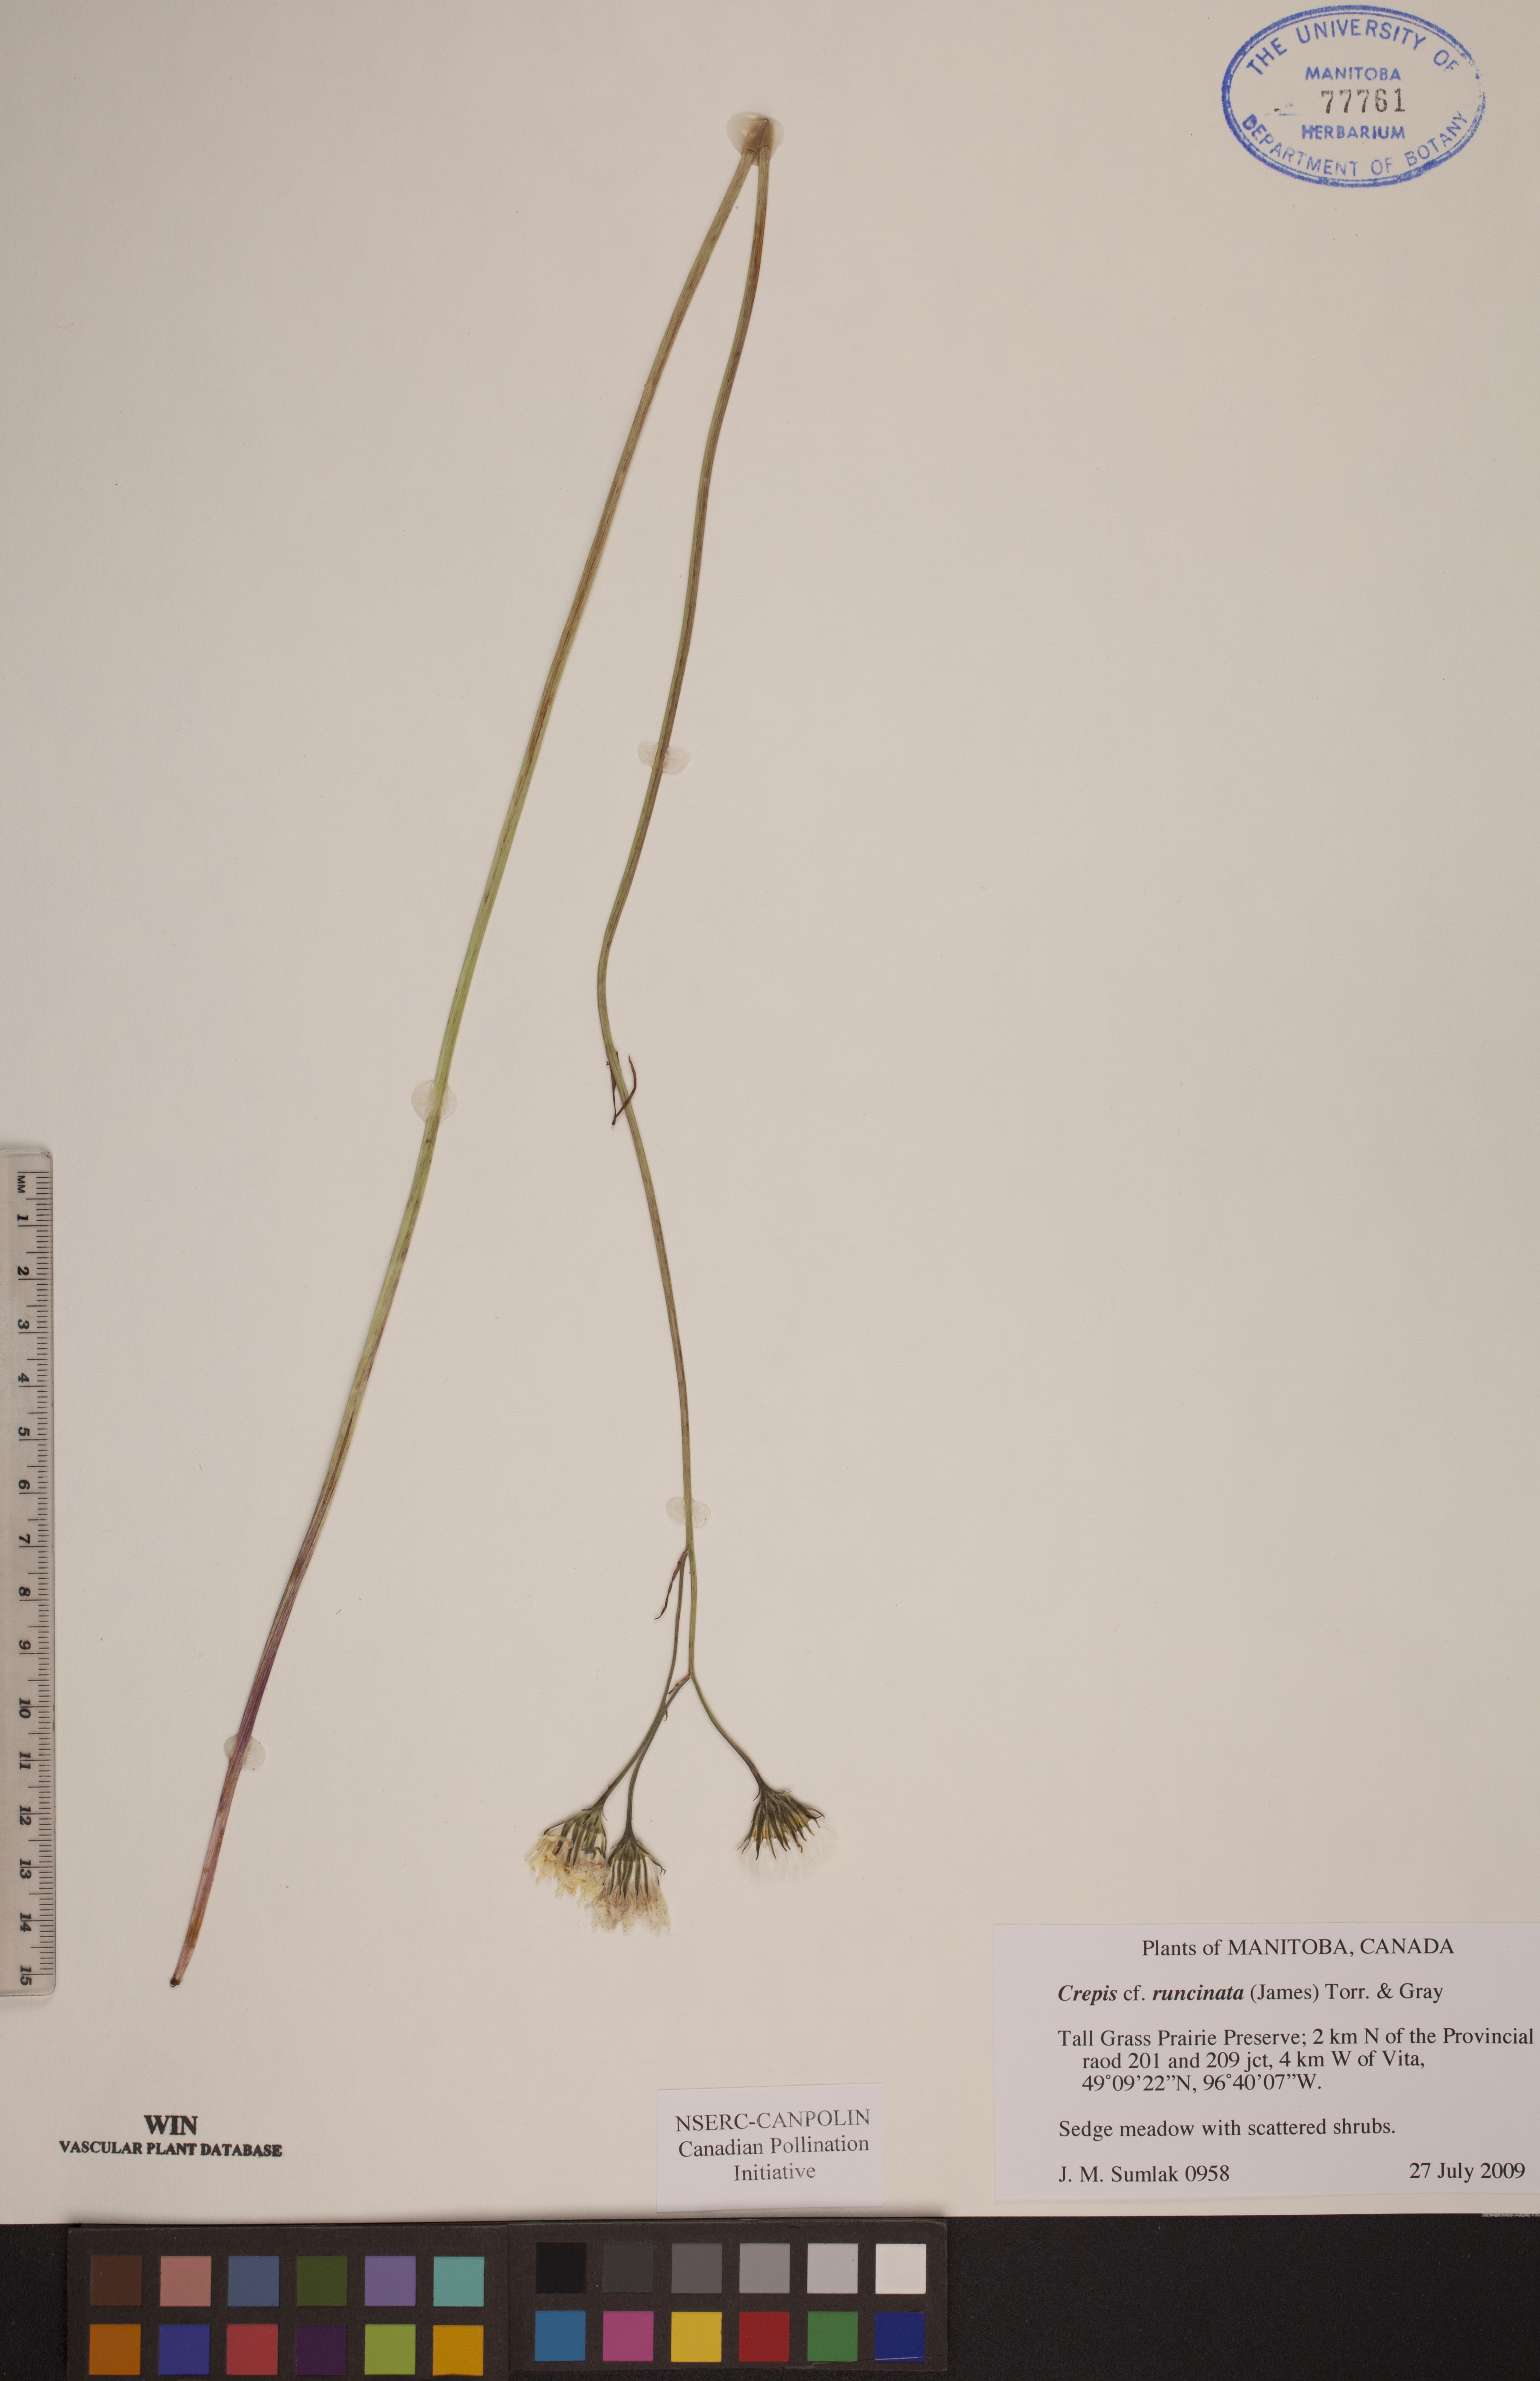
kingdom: Plantae
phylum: Tracheophyta
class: Magnoliopsida
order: Asterales
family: Asteraceae
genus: Crepis
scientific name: Crepis runcinata
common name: Dandelion hawksbeard
